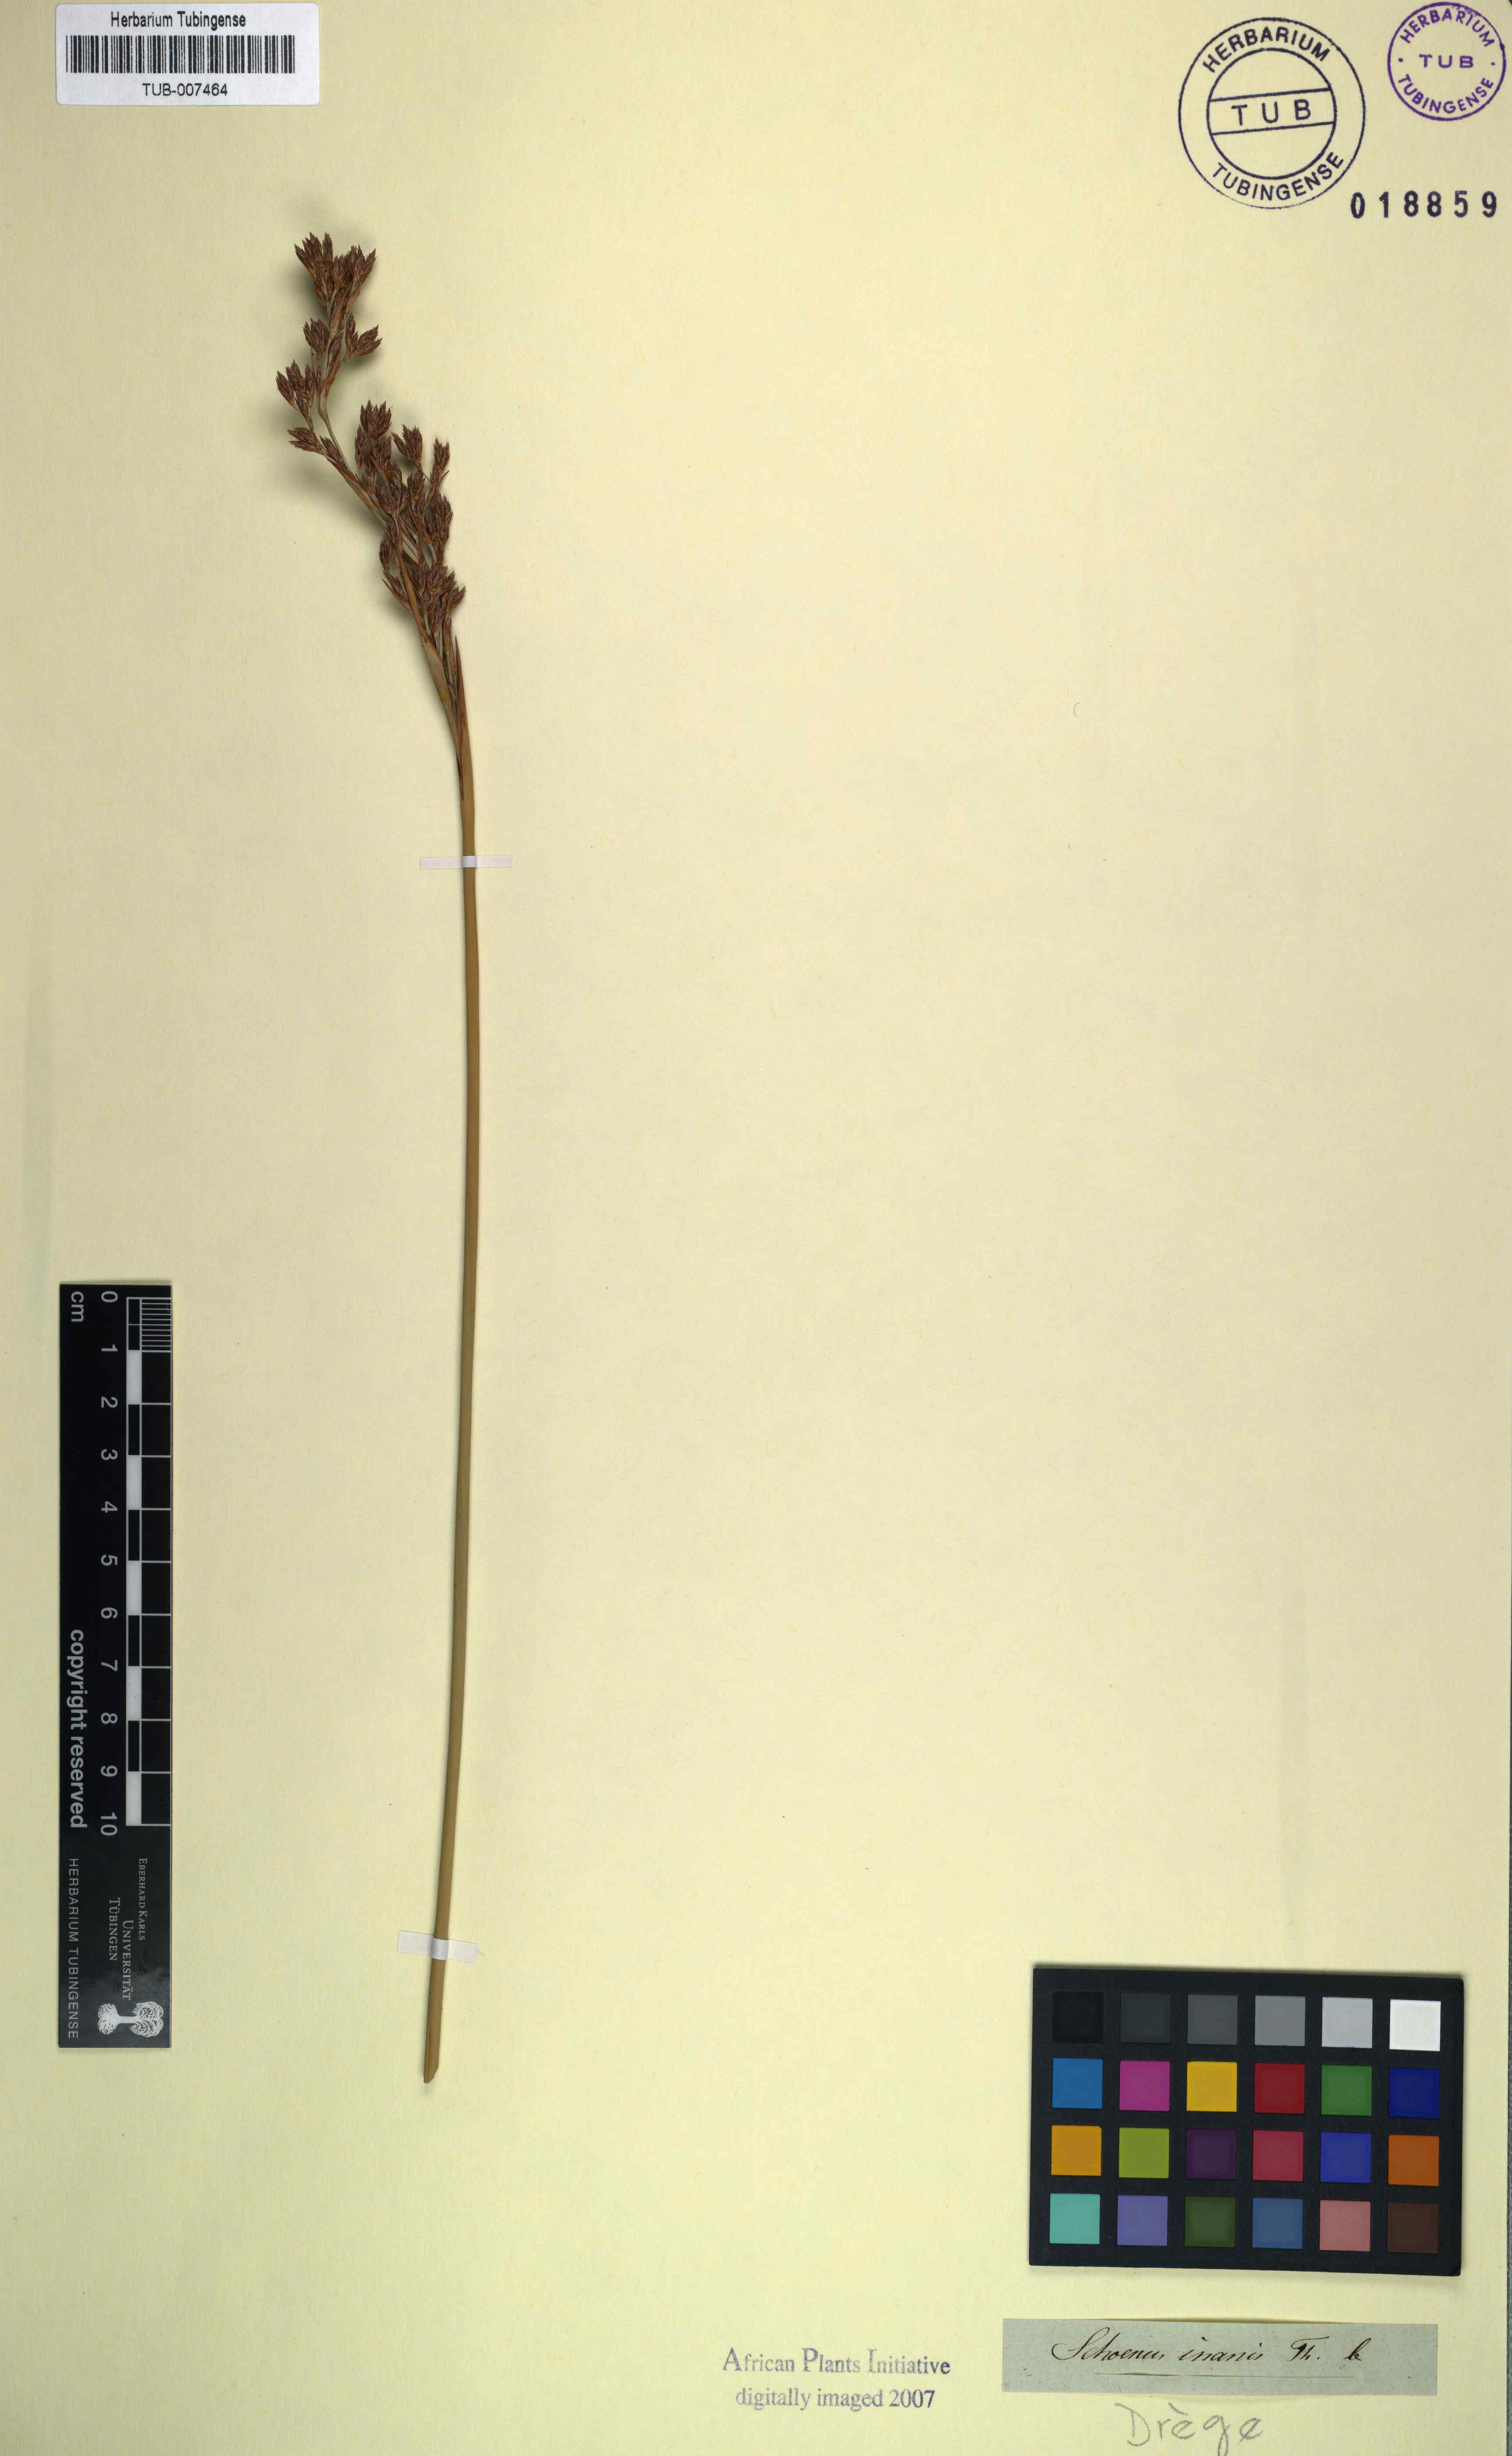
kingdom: Plantae
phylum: Tracheophyta
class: Liliopsida
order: Poales
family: Cyperaceae
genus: Pseudoschoenus
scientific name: Pseudoschoenus inanis
